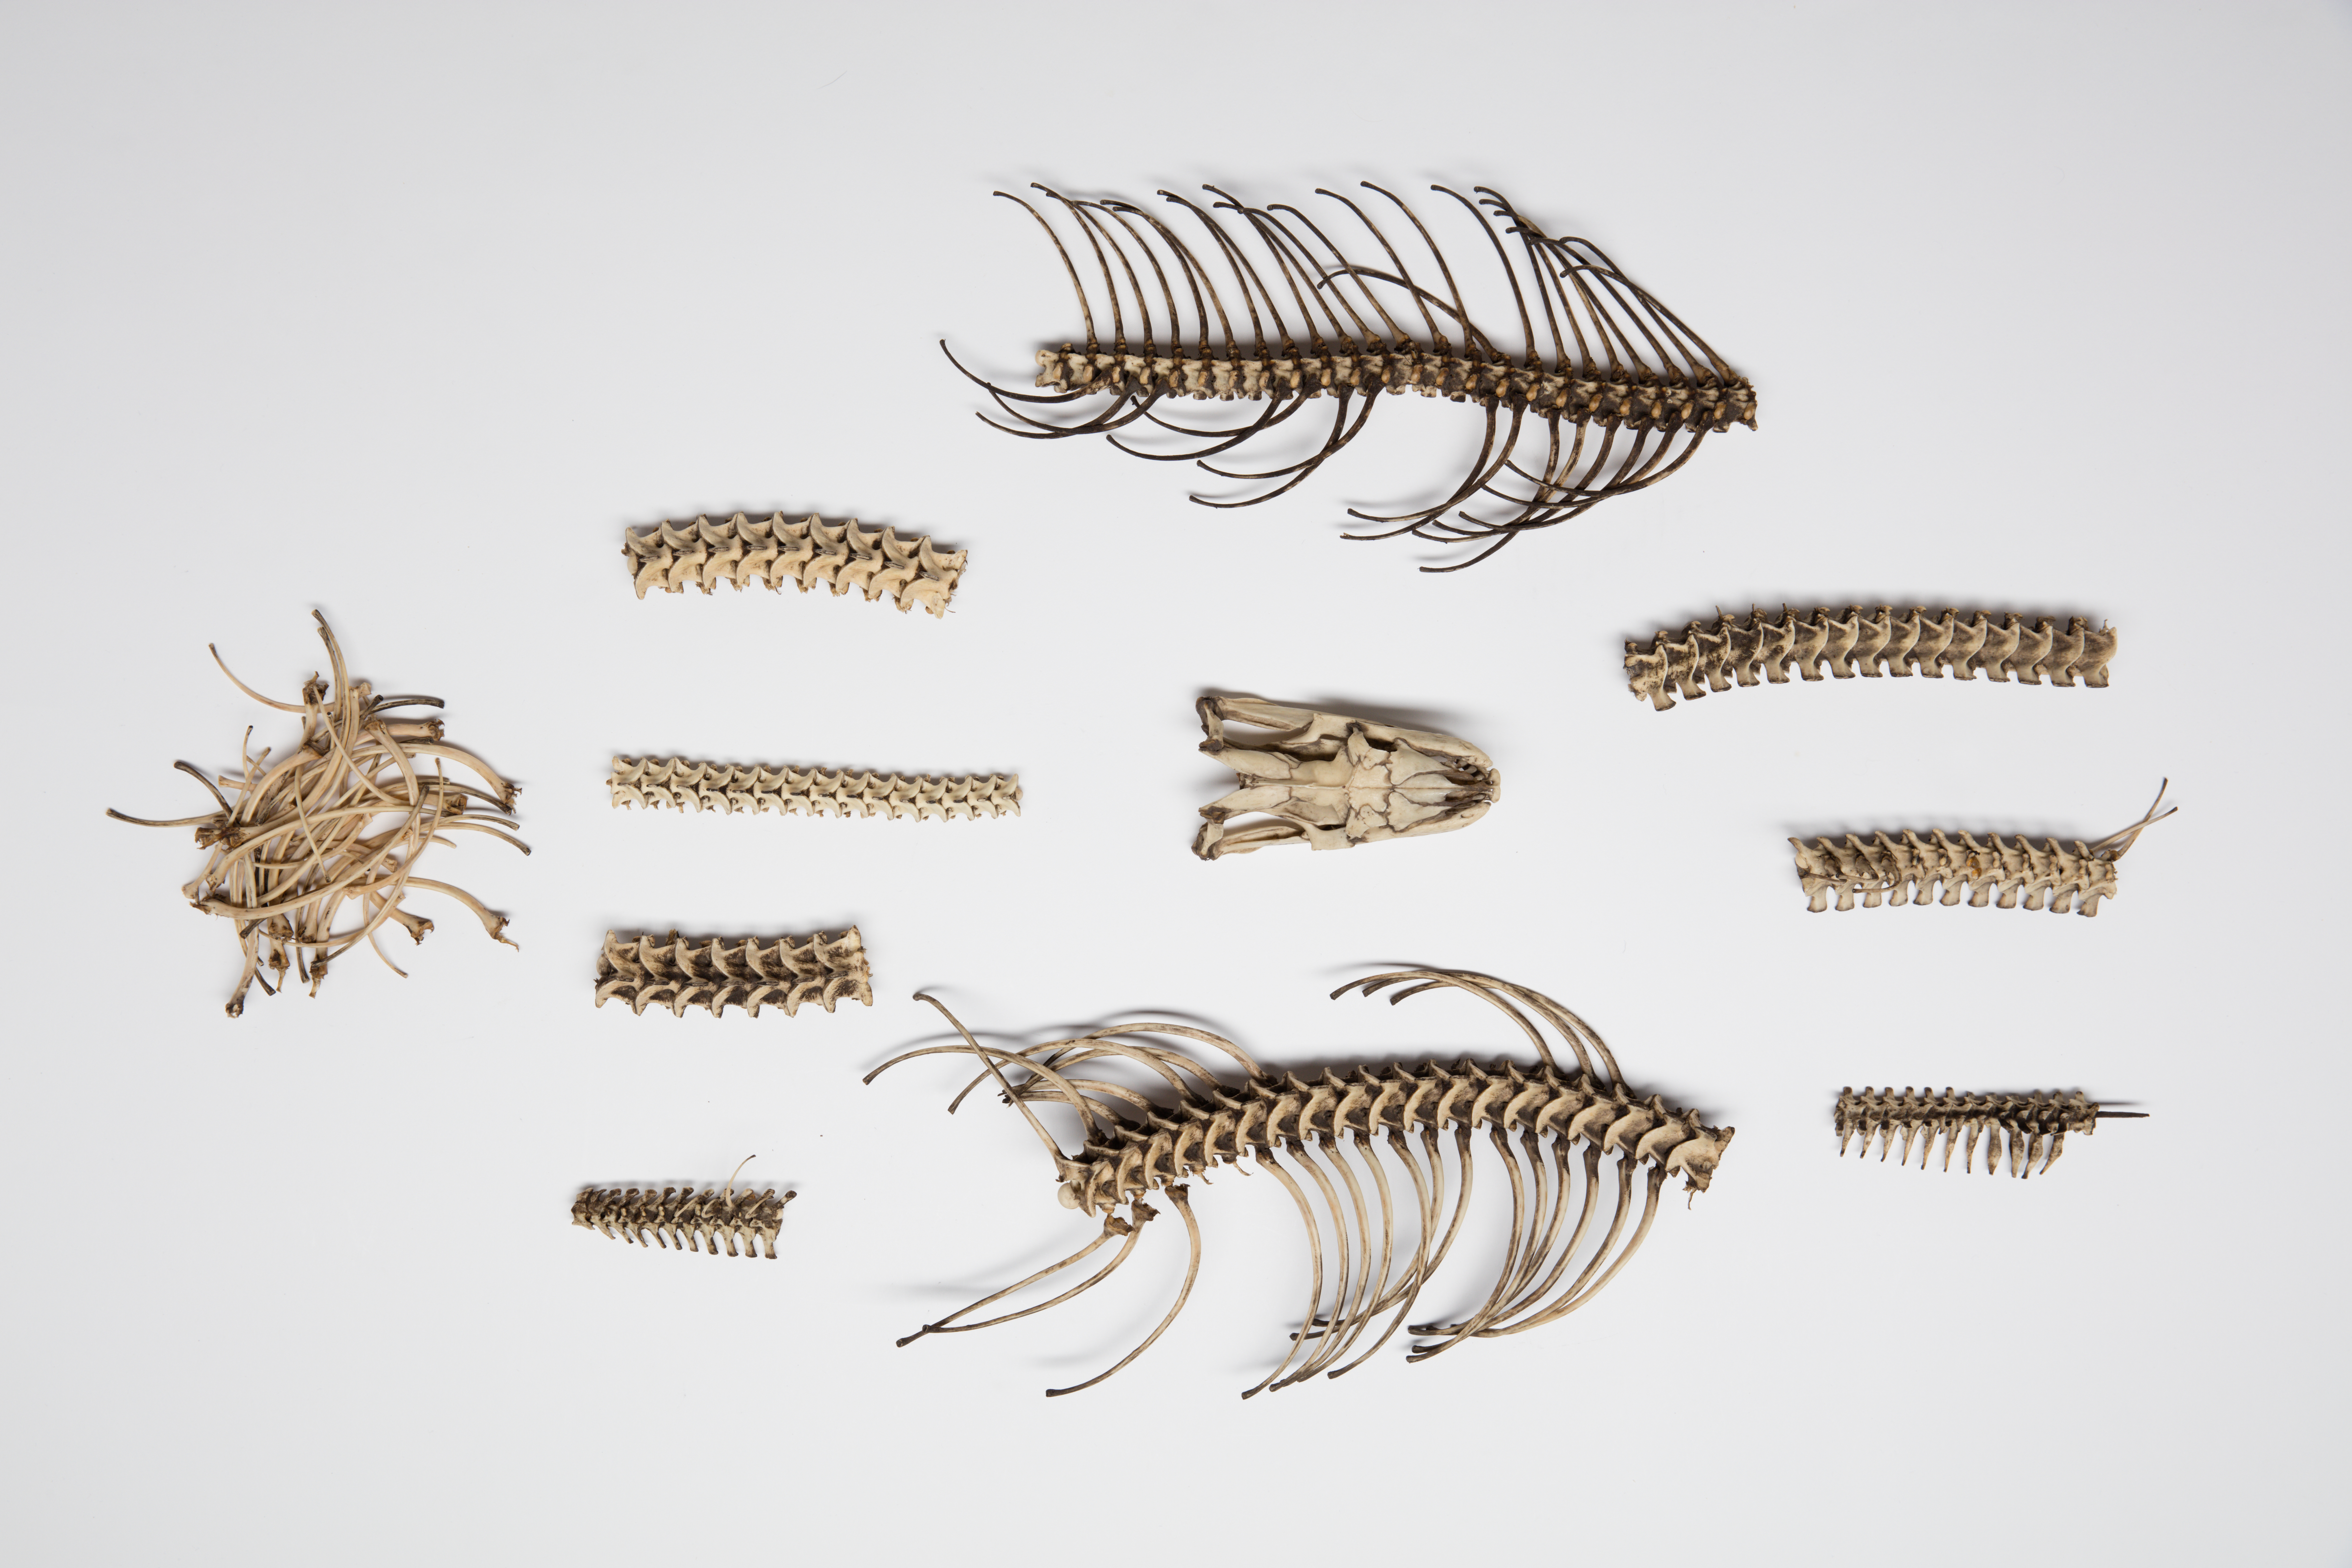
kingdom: Animalia
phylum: Chordata
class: Squamata
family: Pythonidae
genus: Python
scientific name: Python sebae
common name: African rock python
